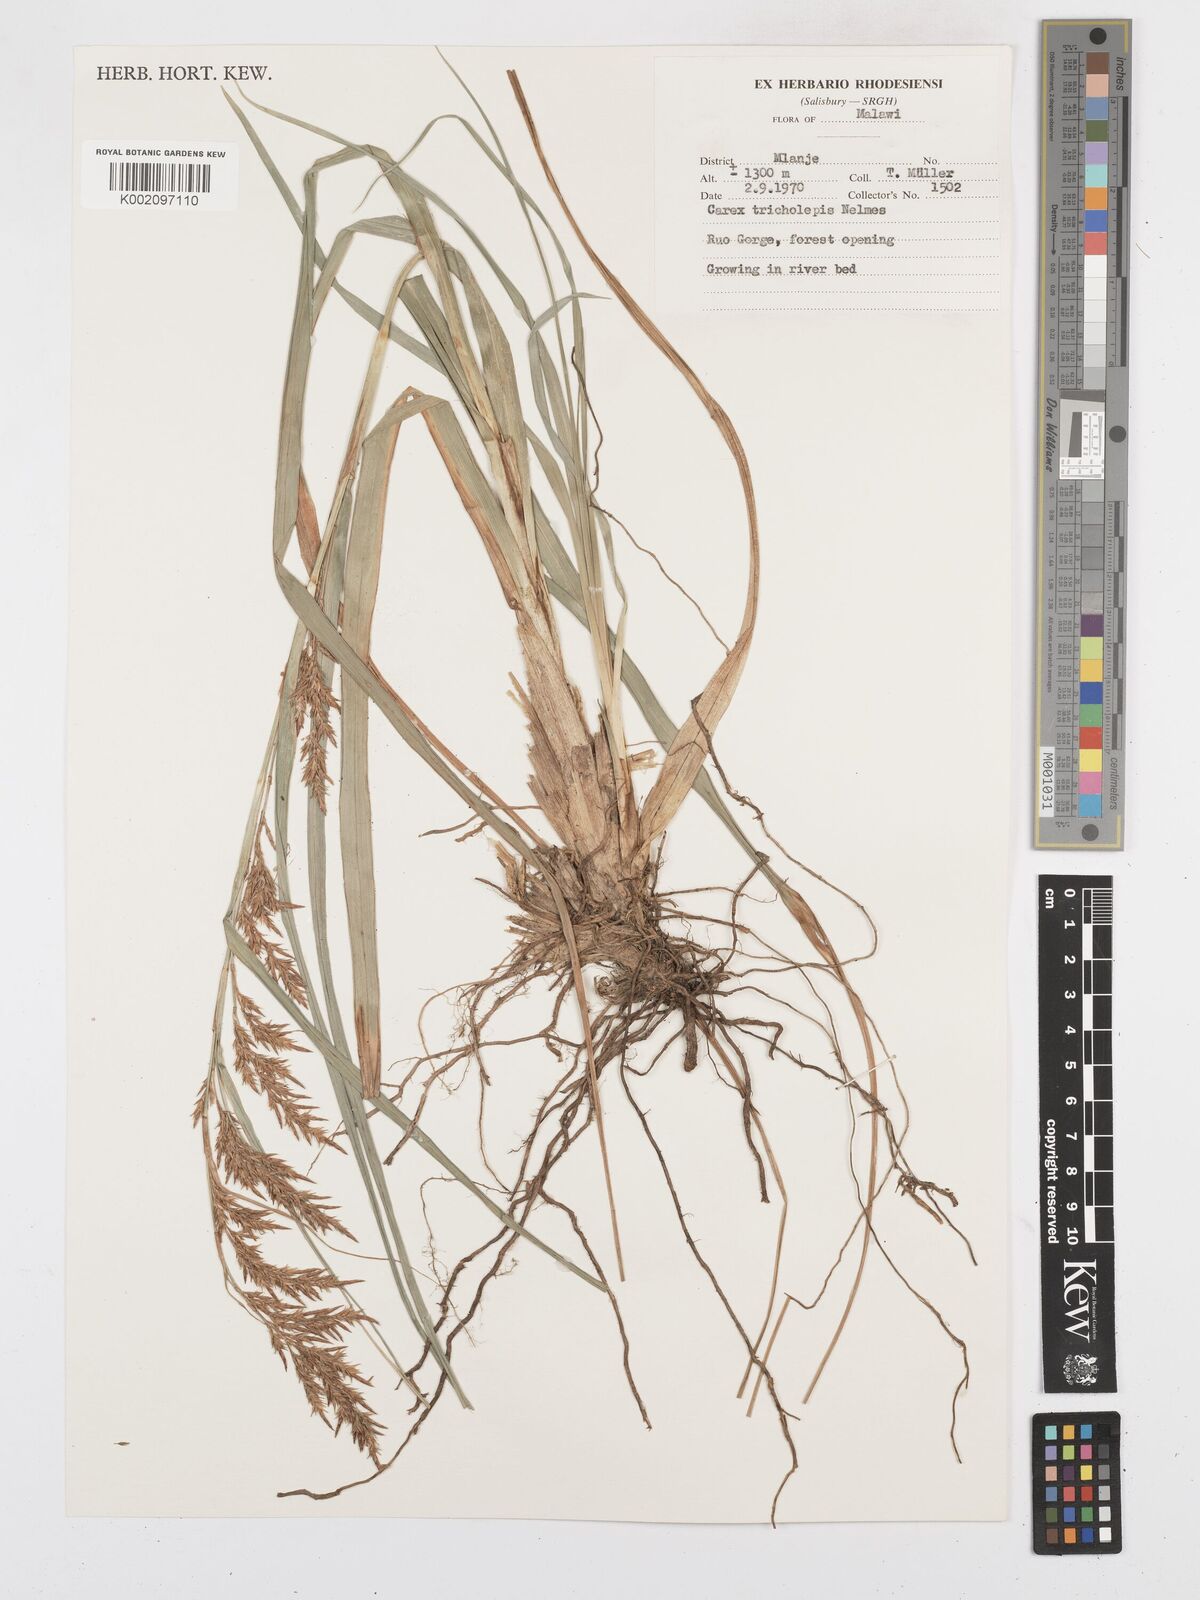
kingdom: Plantae
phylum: Tracheophyta
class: Liliopsida
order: Poales
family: Cyperaceae
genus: Carex
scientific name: Carex tricholepis
